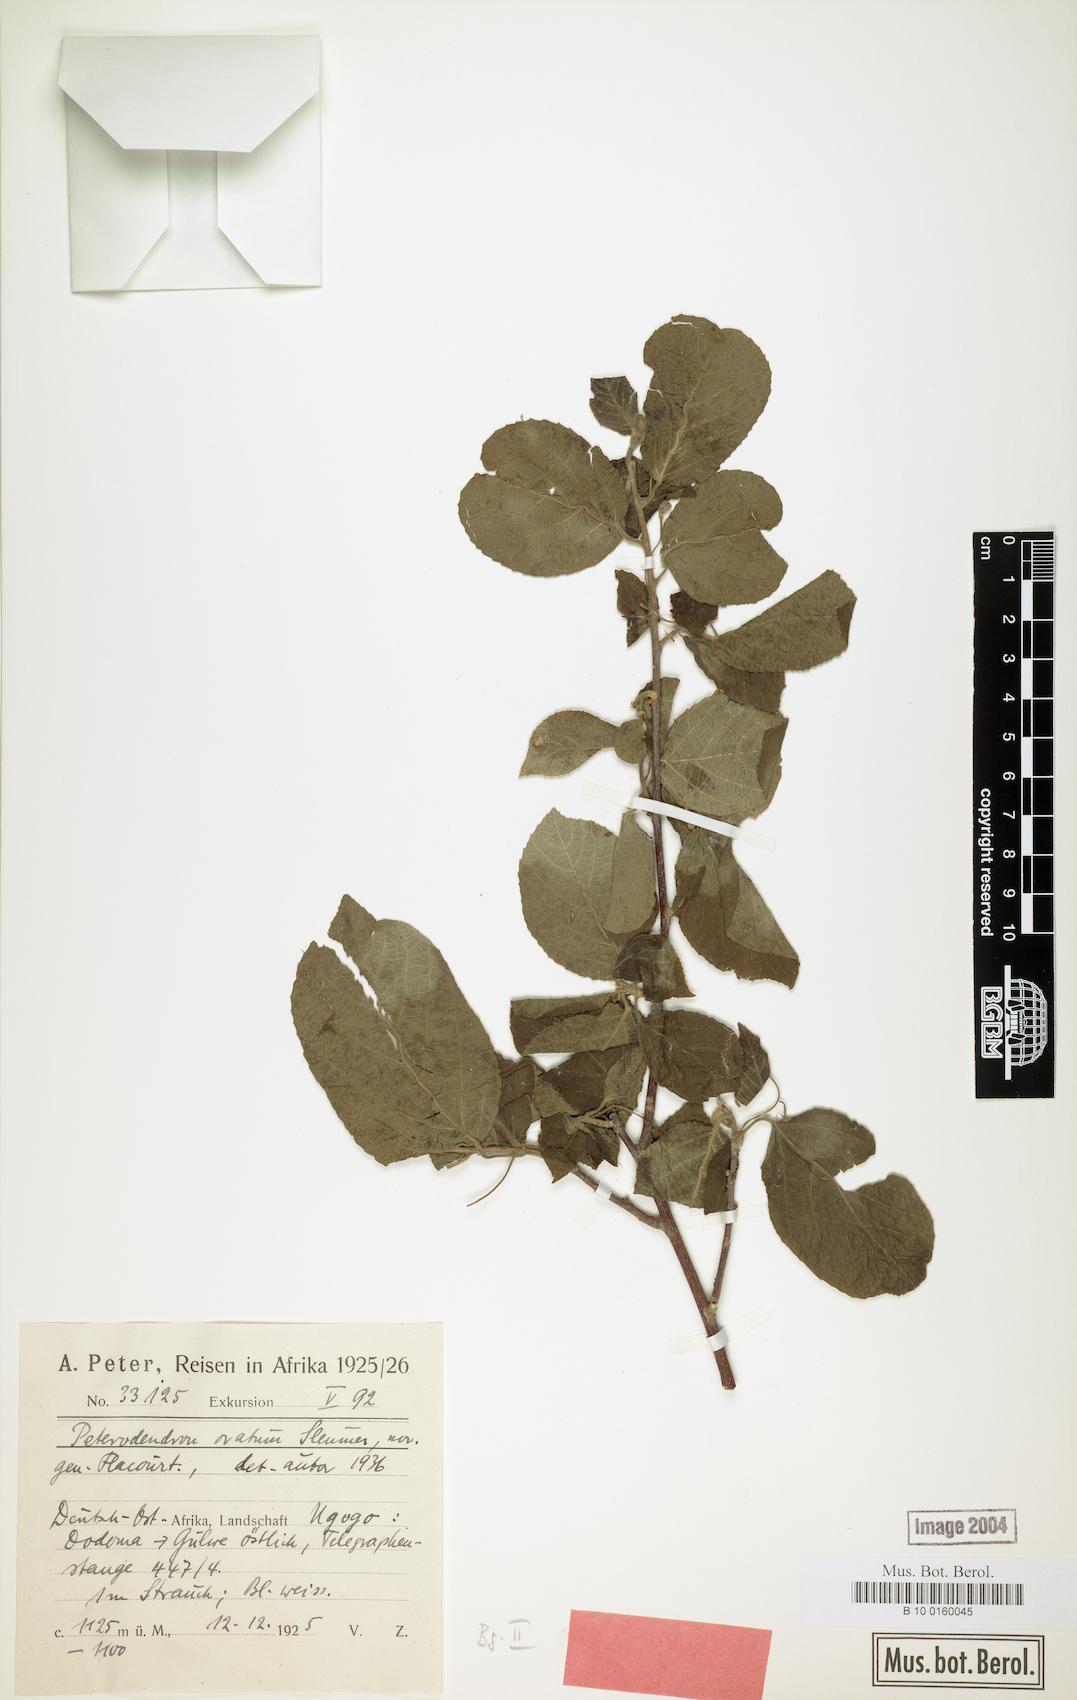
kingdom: Plantae
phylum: Tracheophyta
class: Magnoliopsida
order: Malpighiales
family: Achariaceae
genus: Peterodendron
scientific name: Peterodendron ovatum
